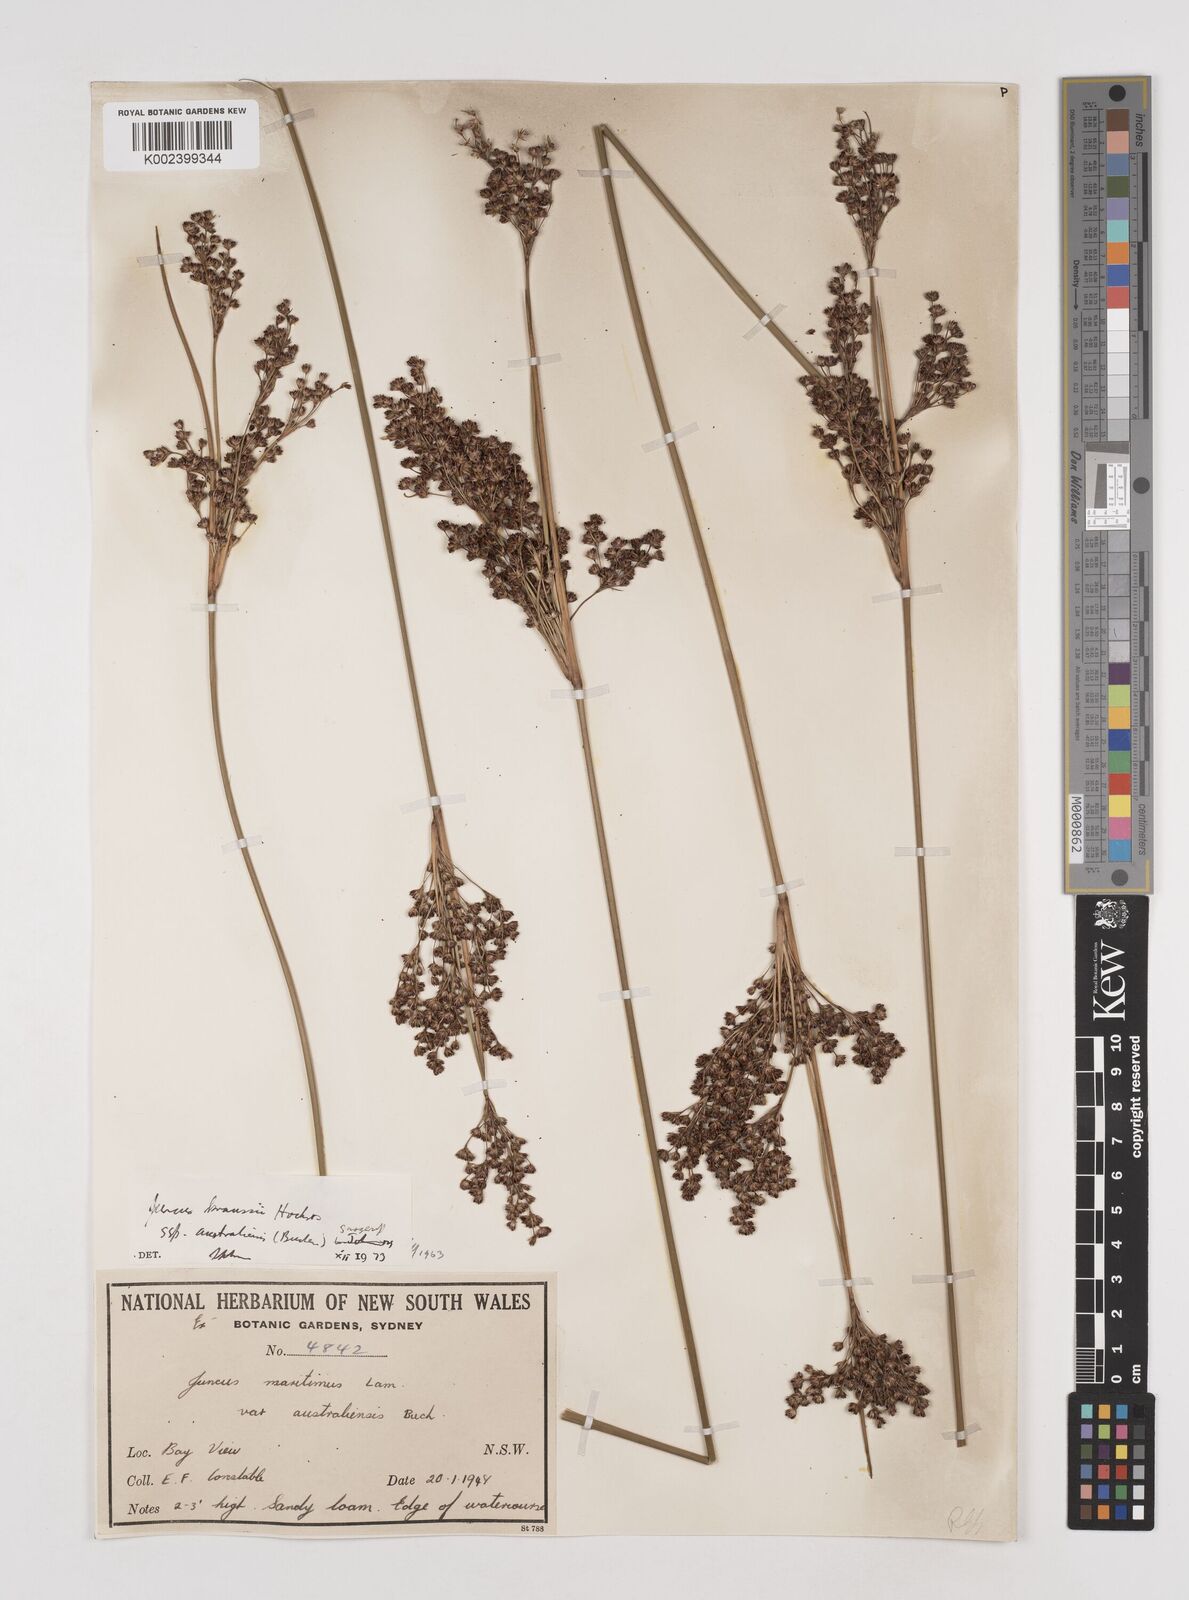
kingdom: Plantae
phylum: Tracheophyta
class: Liliopsida
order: Poales
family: Juncaceae
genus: Juncus
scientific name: Juncus kraussii
